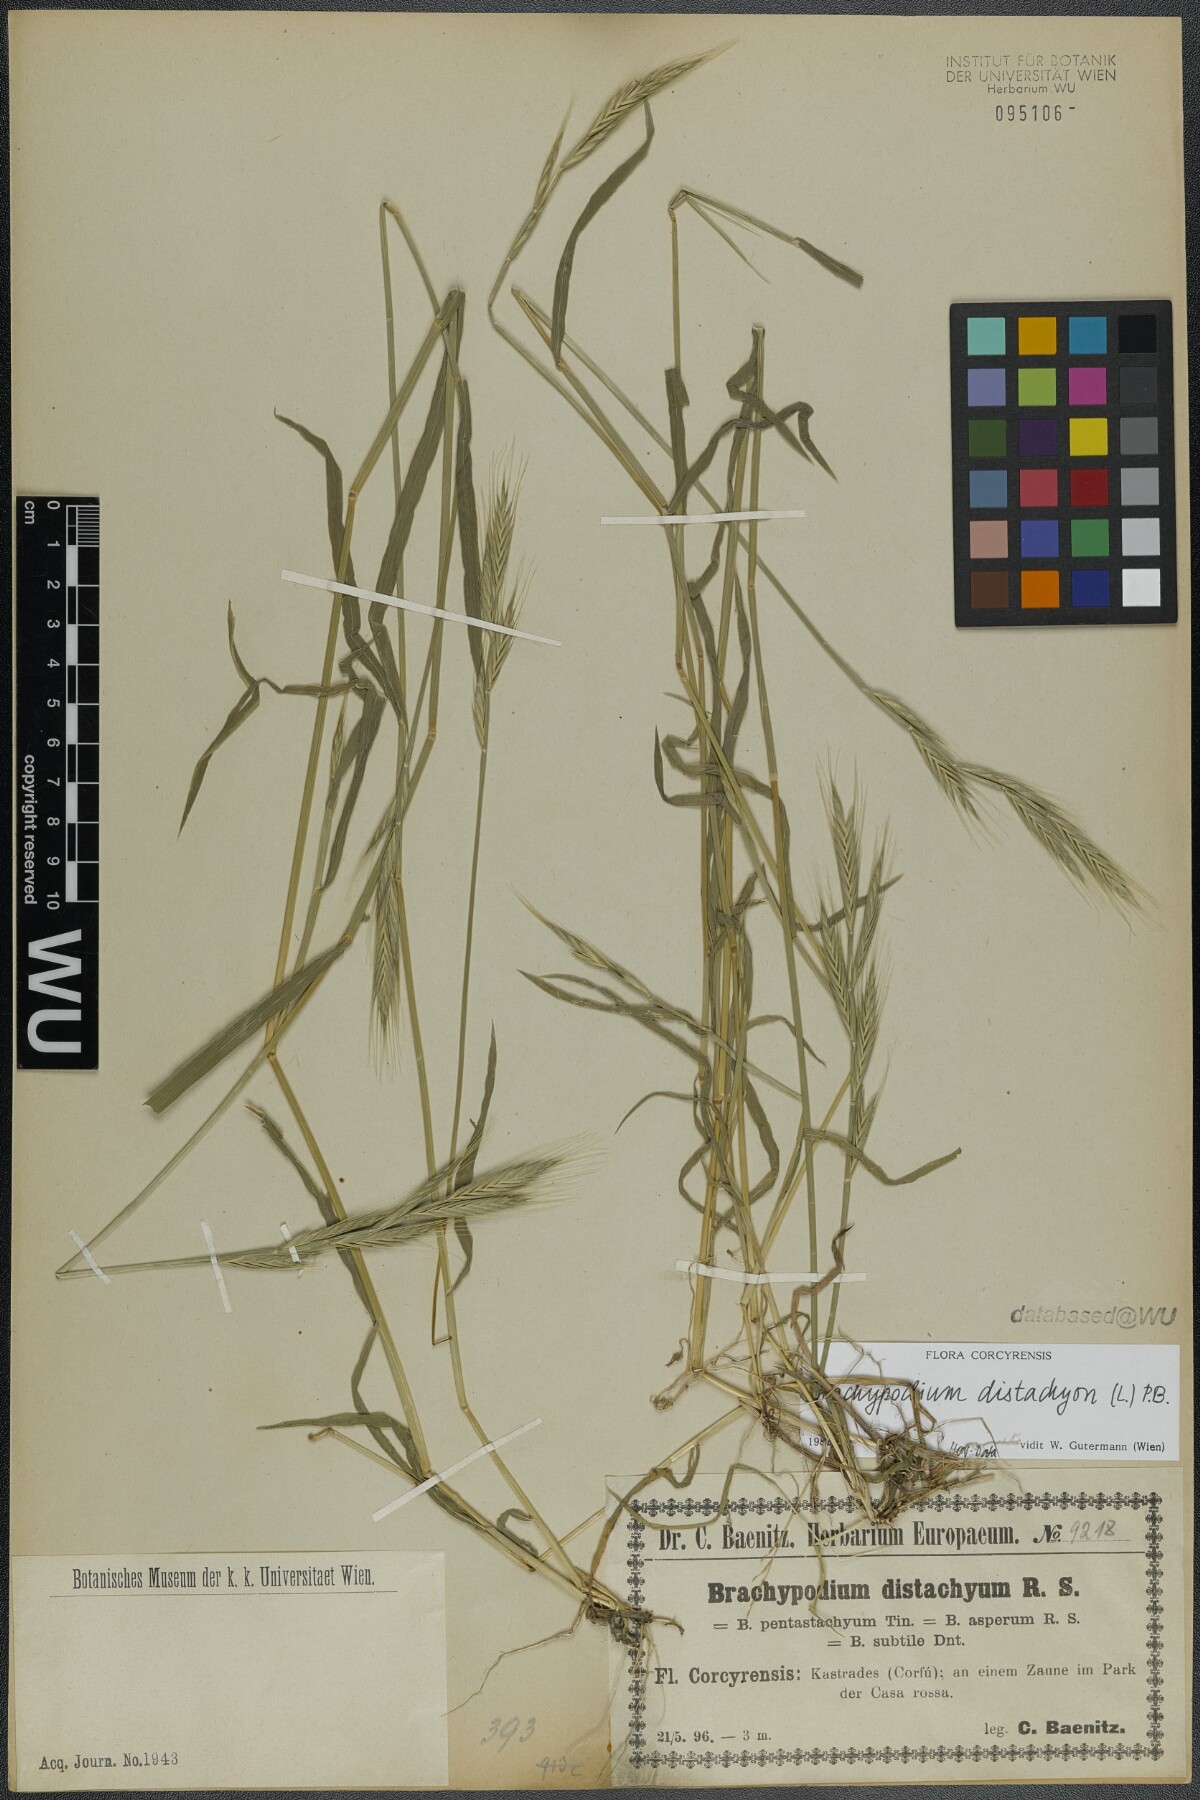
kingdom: Plantae
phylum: Tracheophyta
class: Liliopsida
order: Poales
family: Poaceae
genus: Brachypodium
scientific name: Brachypodium distachyon
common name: Stiff brome
